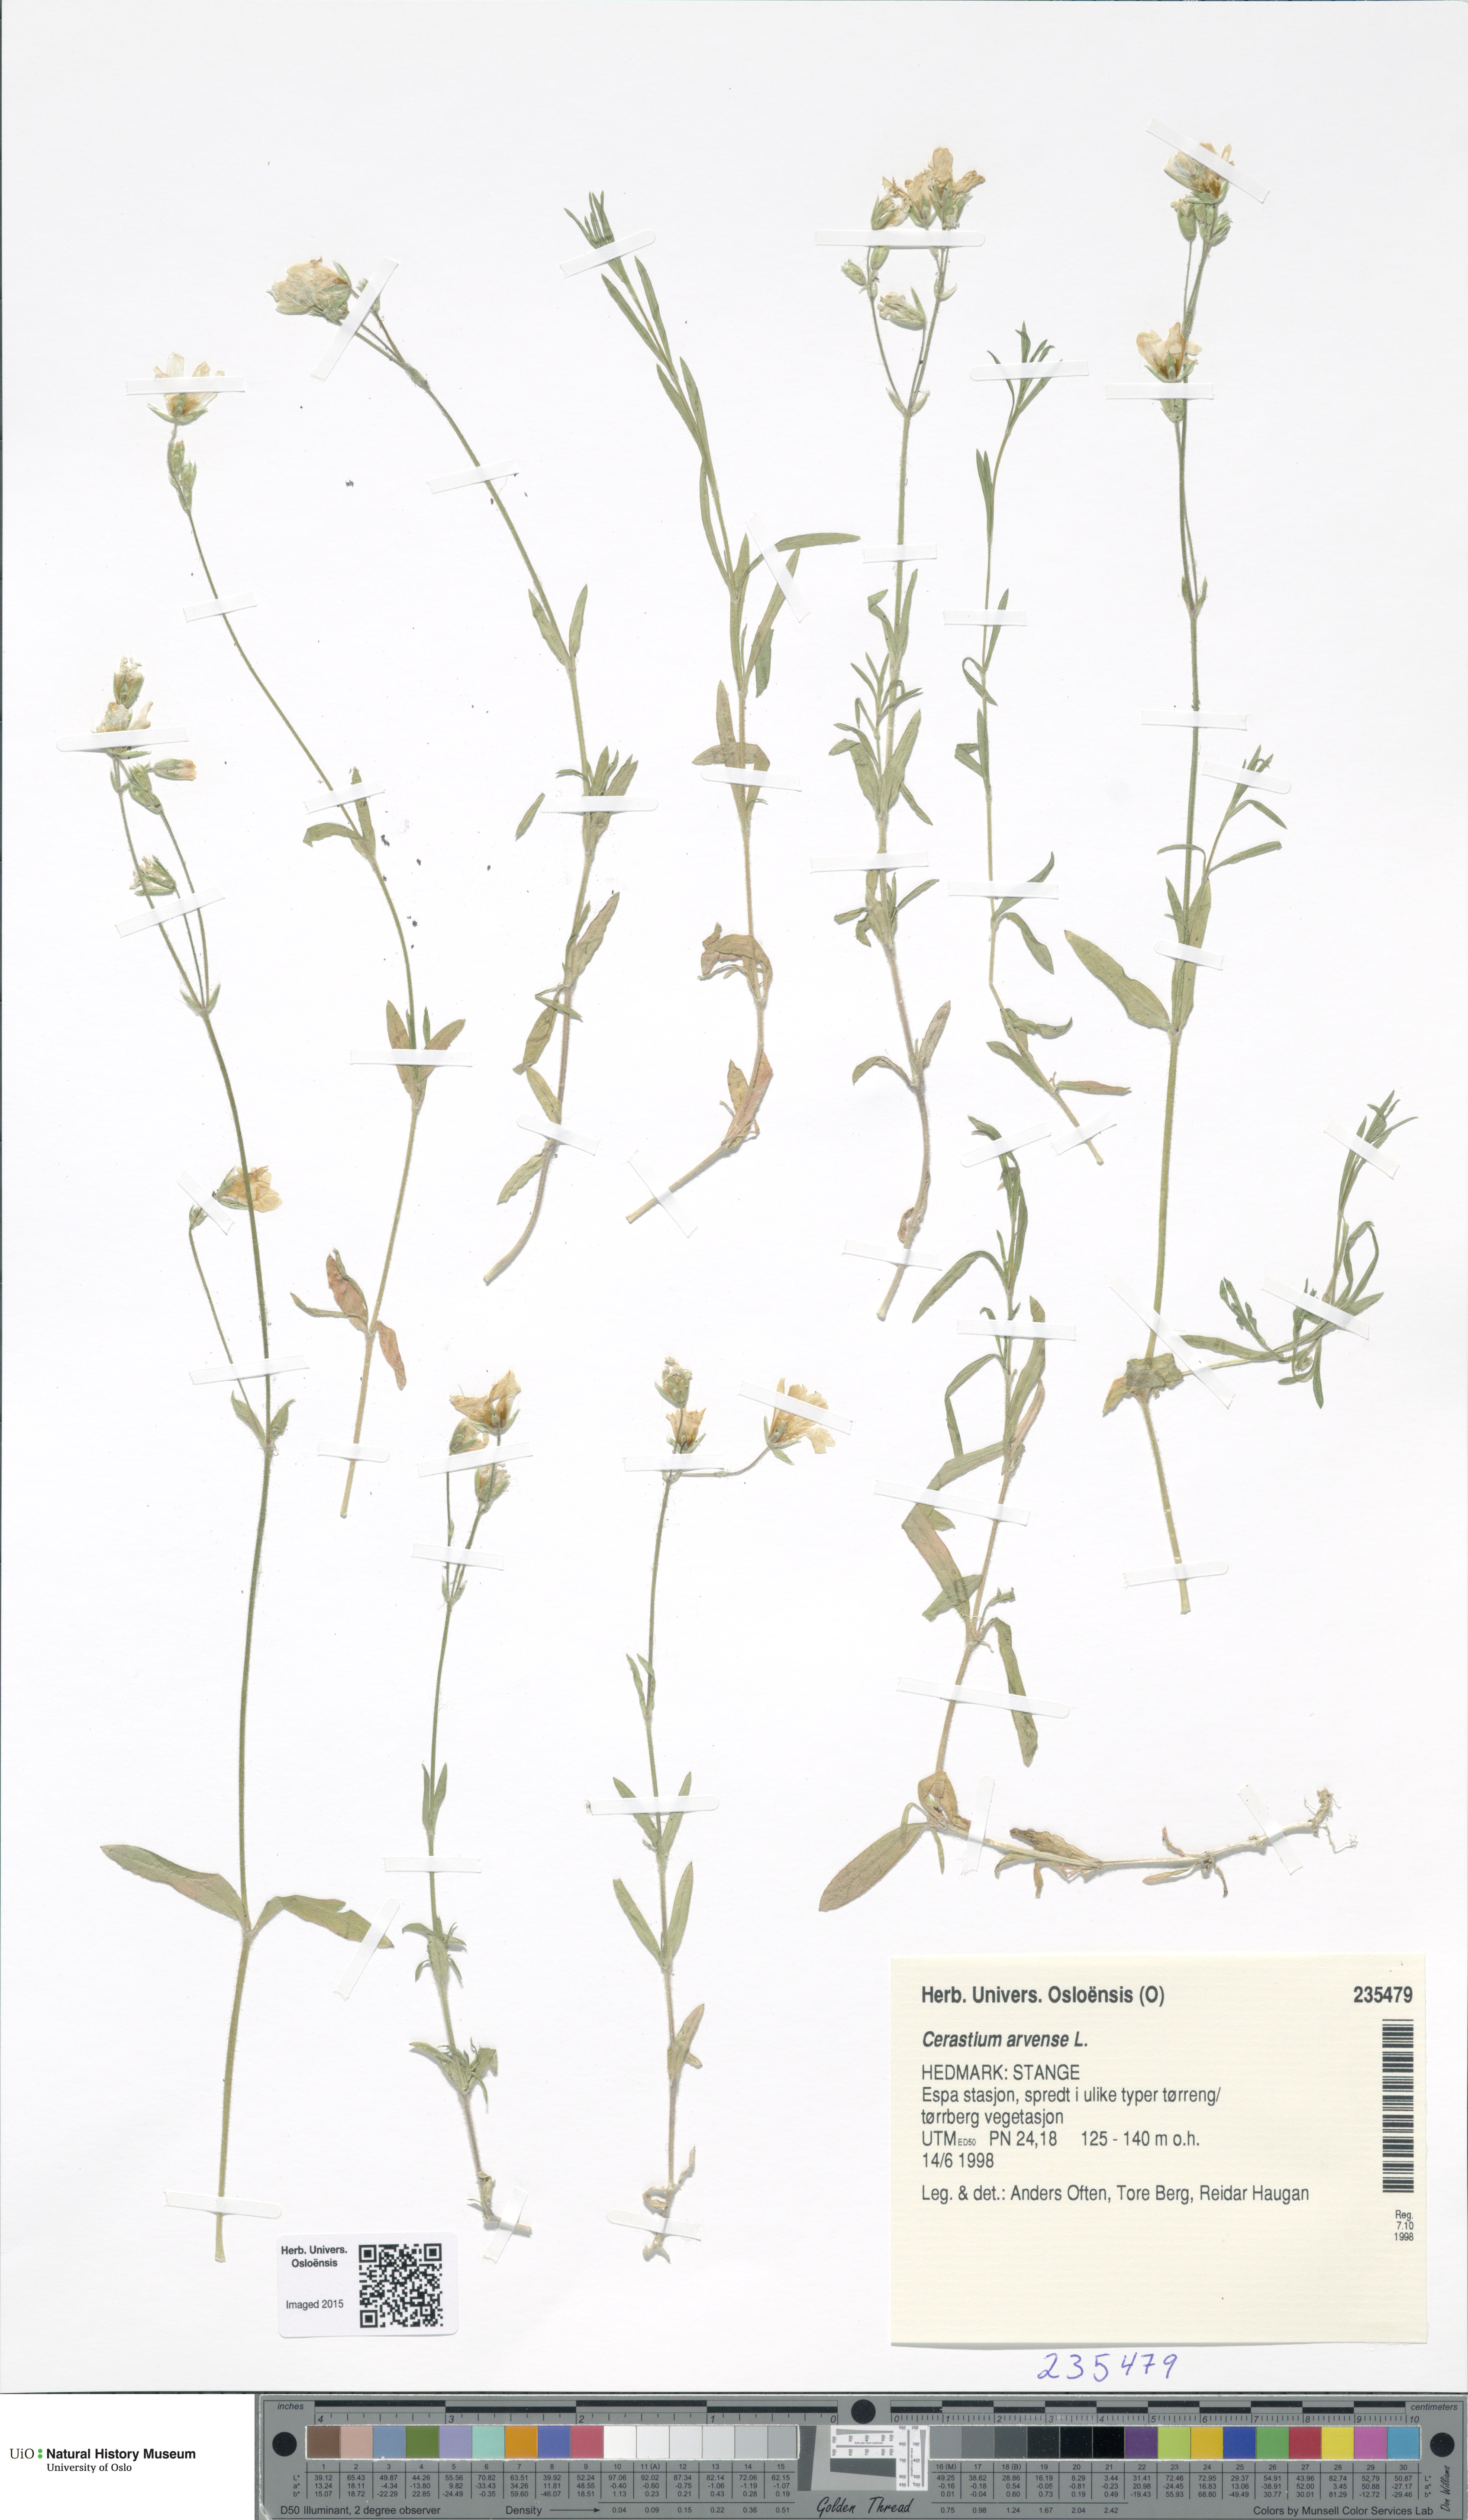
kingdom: Plantae
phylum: Tracheophyta
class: Magnoliopsida
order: Caryophyllales
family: Caryophyllaceae
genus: Cerastium
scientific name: Cerastium arvense
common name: Field mouse-ear
